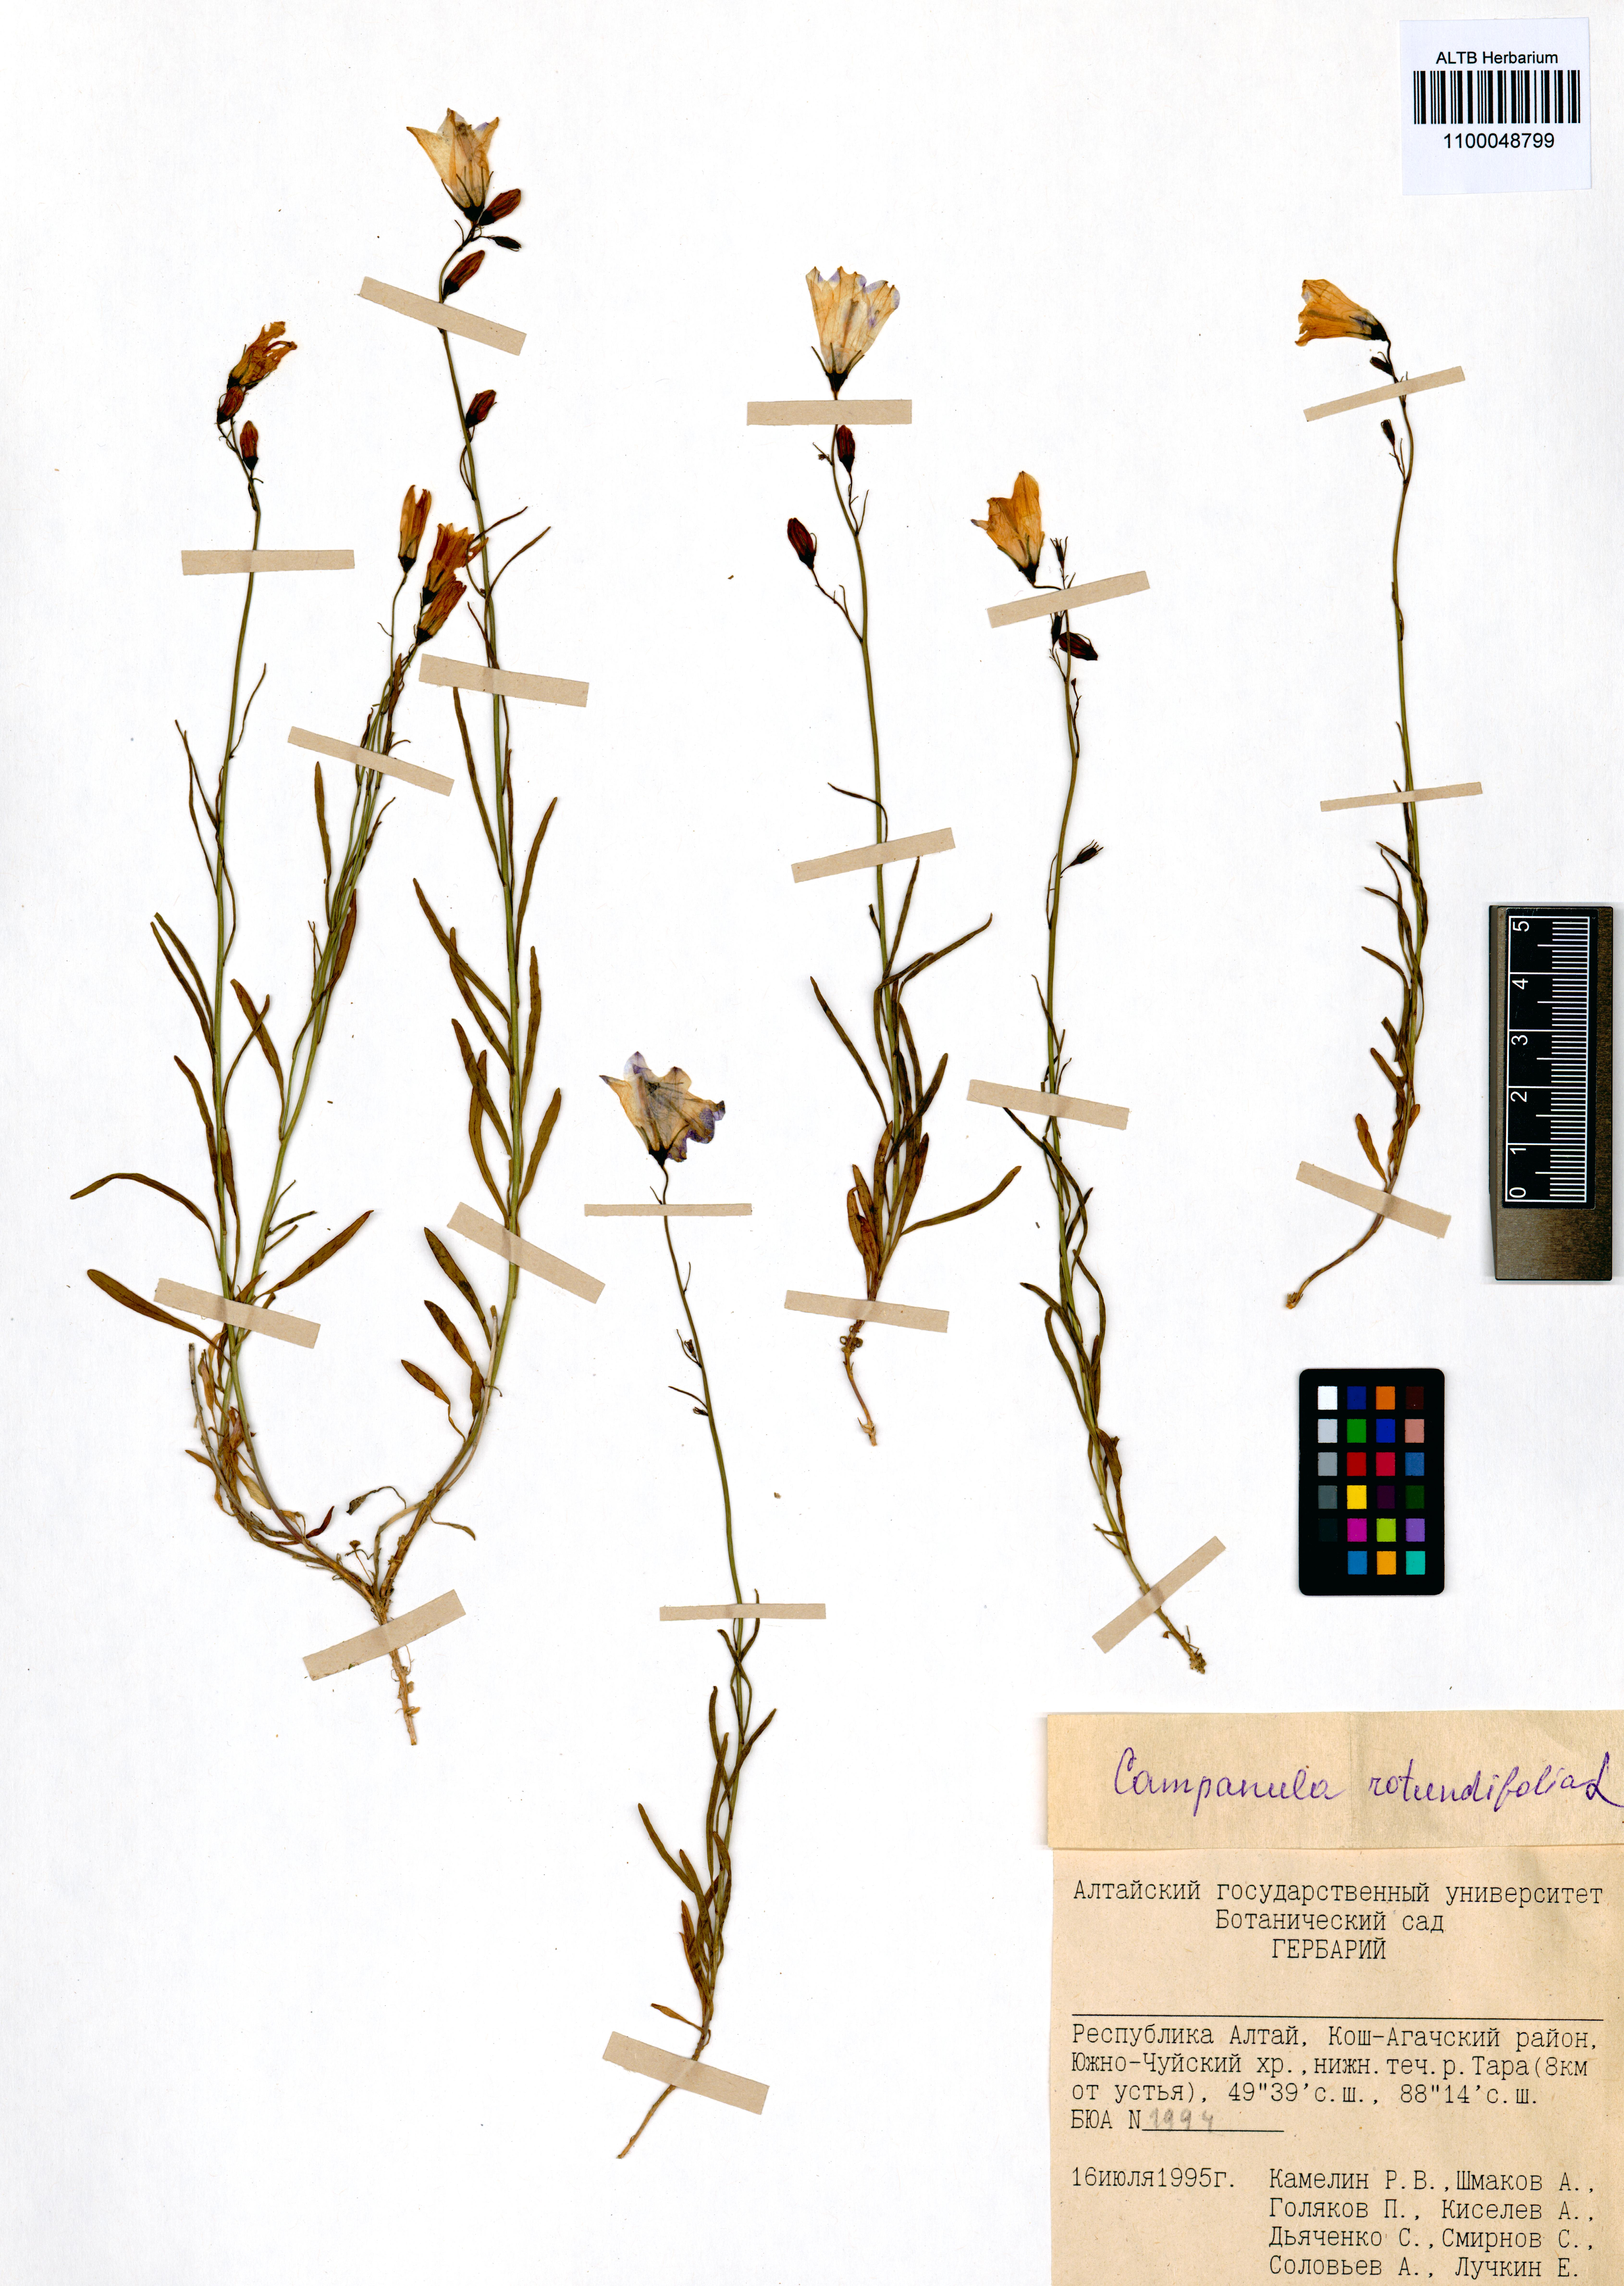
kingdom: Plantae
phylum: Tracheophyta
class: Magnoliopsida
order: Asterales
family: Campanulaceae
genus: Campanula
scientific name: Campanula rotundifolia
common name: Harebell
